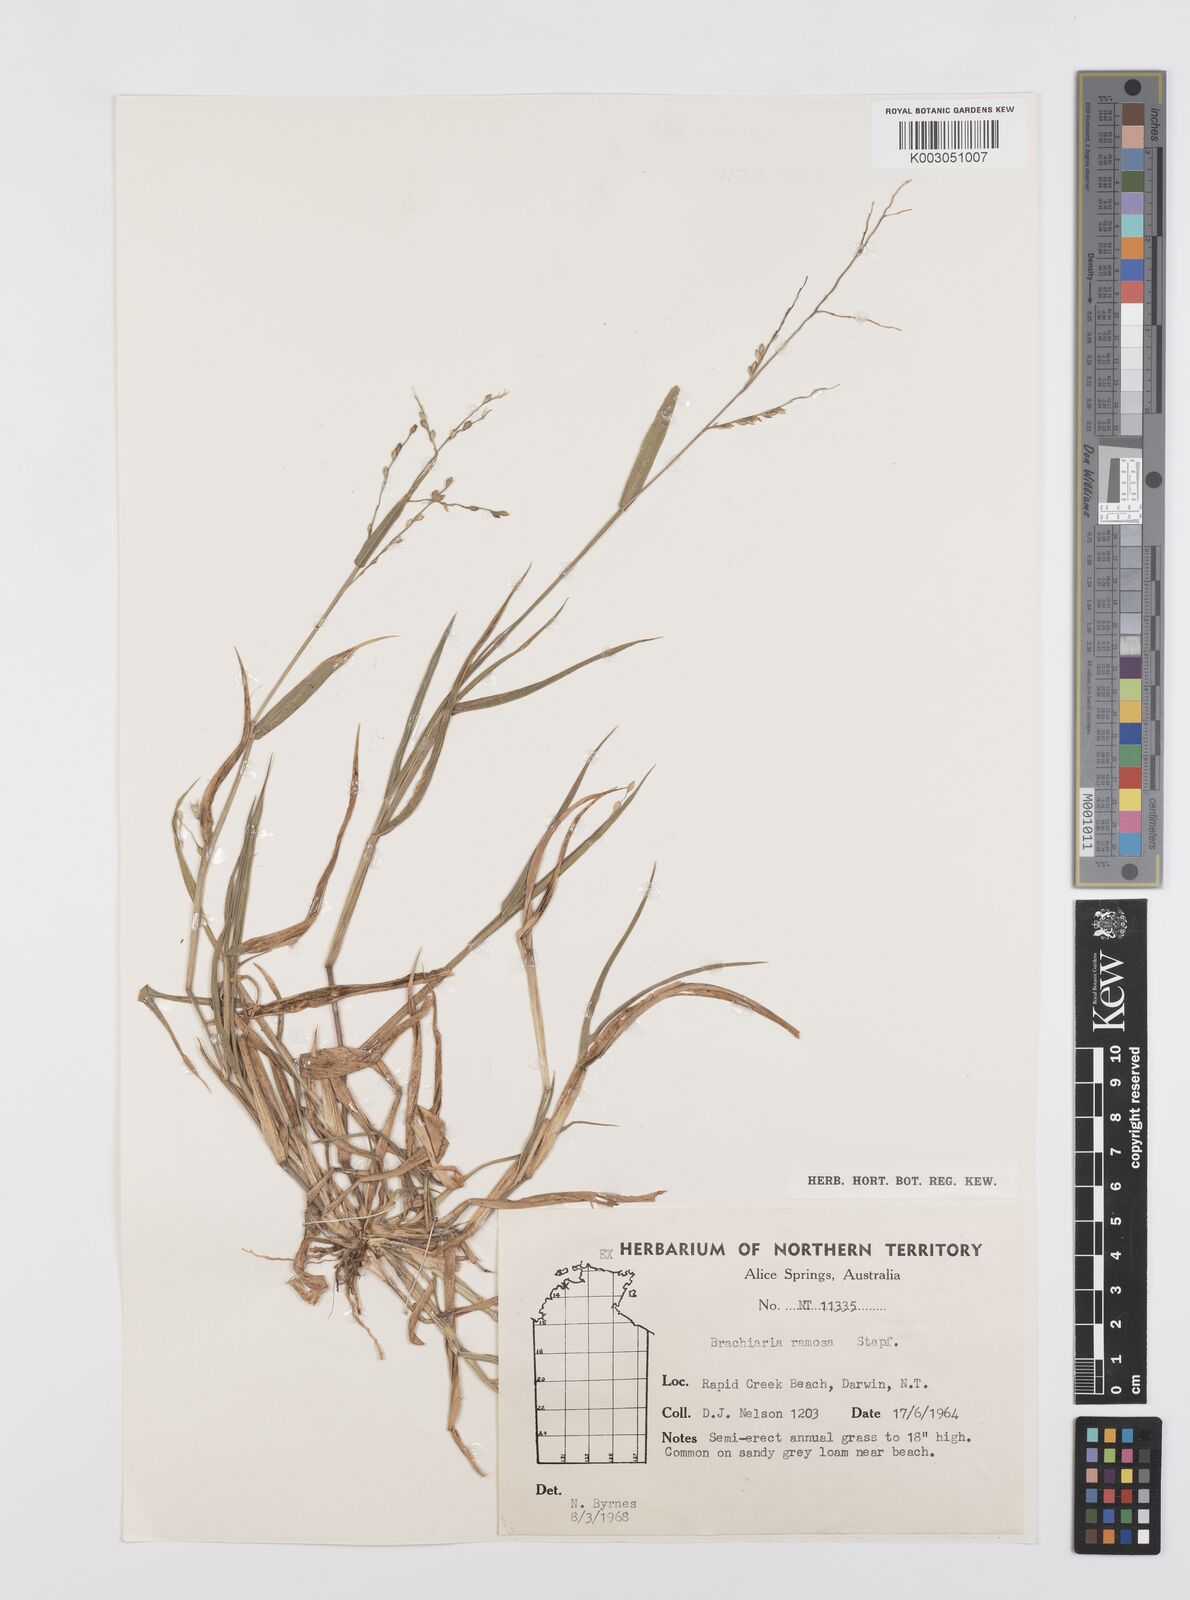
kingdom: Plantae
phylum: Tracheophyta
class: Liliopsida
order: Poales
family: Poaceae
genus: Urochloa
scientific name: Urochloa pubigera
